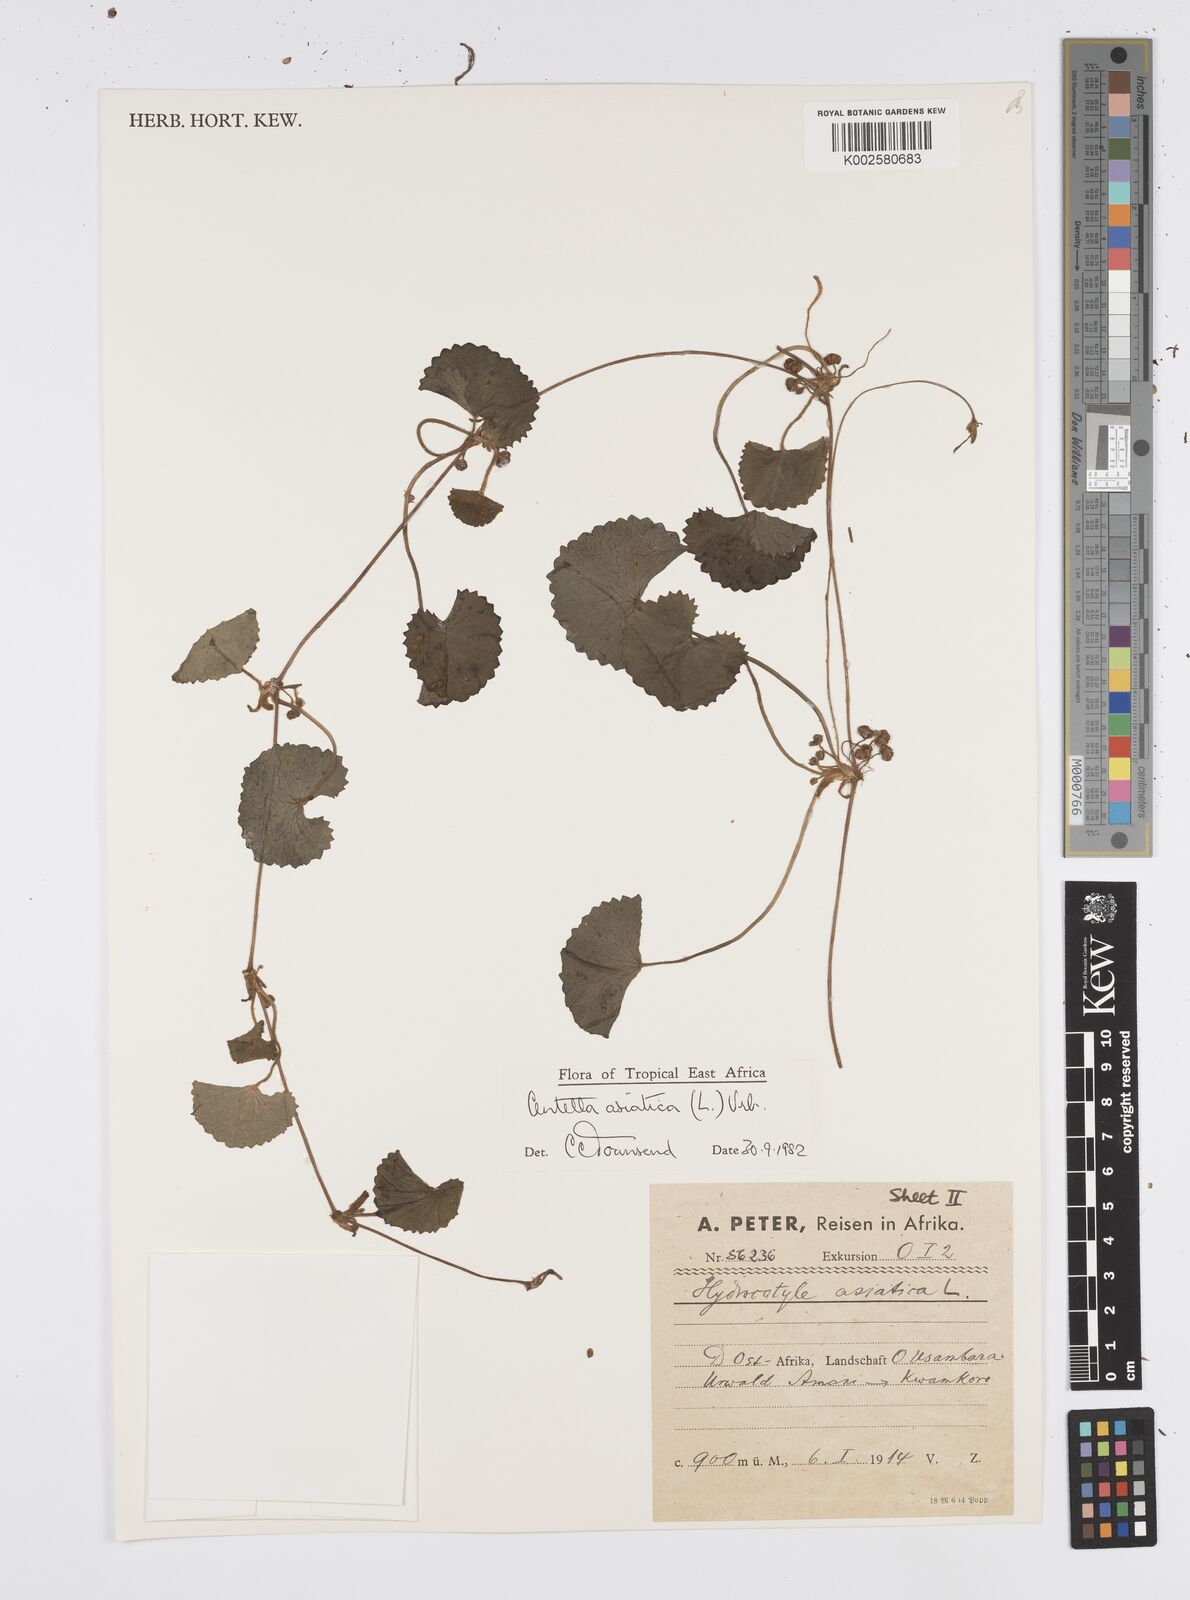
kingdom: Plantae
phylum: Tracheophyta
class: Magnoliopsida
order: Apiales
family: Apiaceae
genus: Centella
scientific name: Centella asiatica
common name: Spadeleaf
